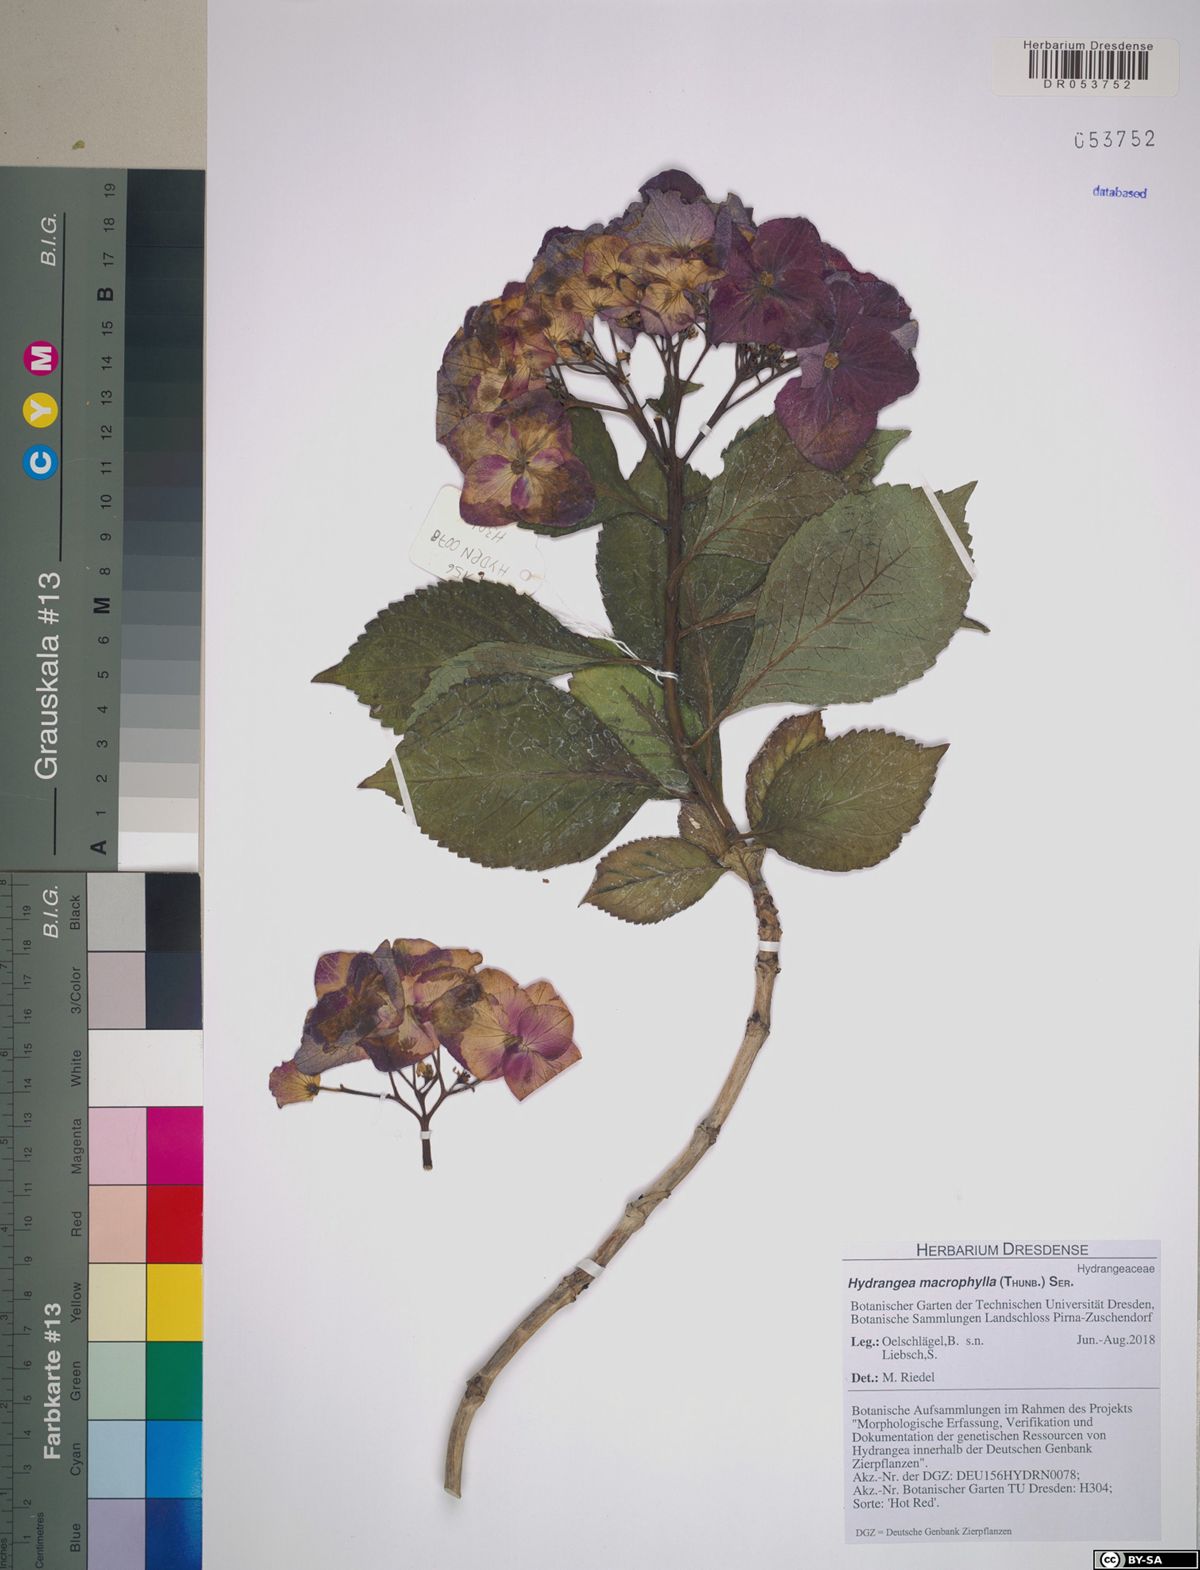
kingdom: Plantae
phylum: Tracheophyta
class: Magnoliopsida
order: Cornales
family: Hydrangeaceae
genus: Hydrangea
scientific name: Hydrangea macrophylla
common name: Hydrangea
